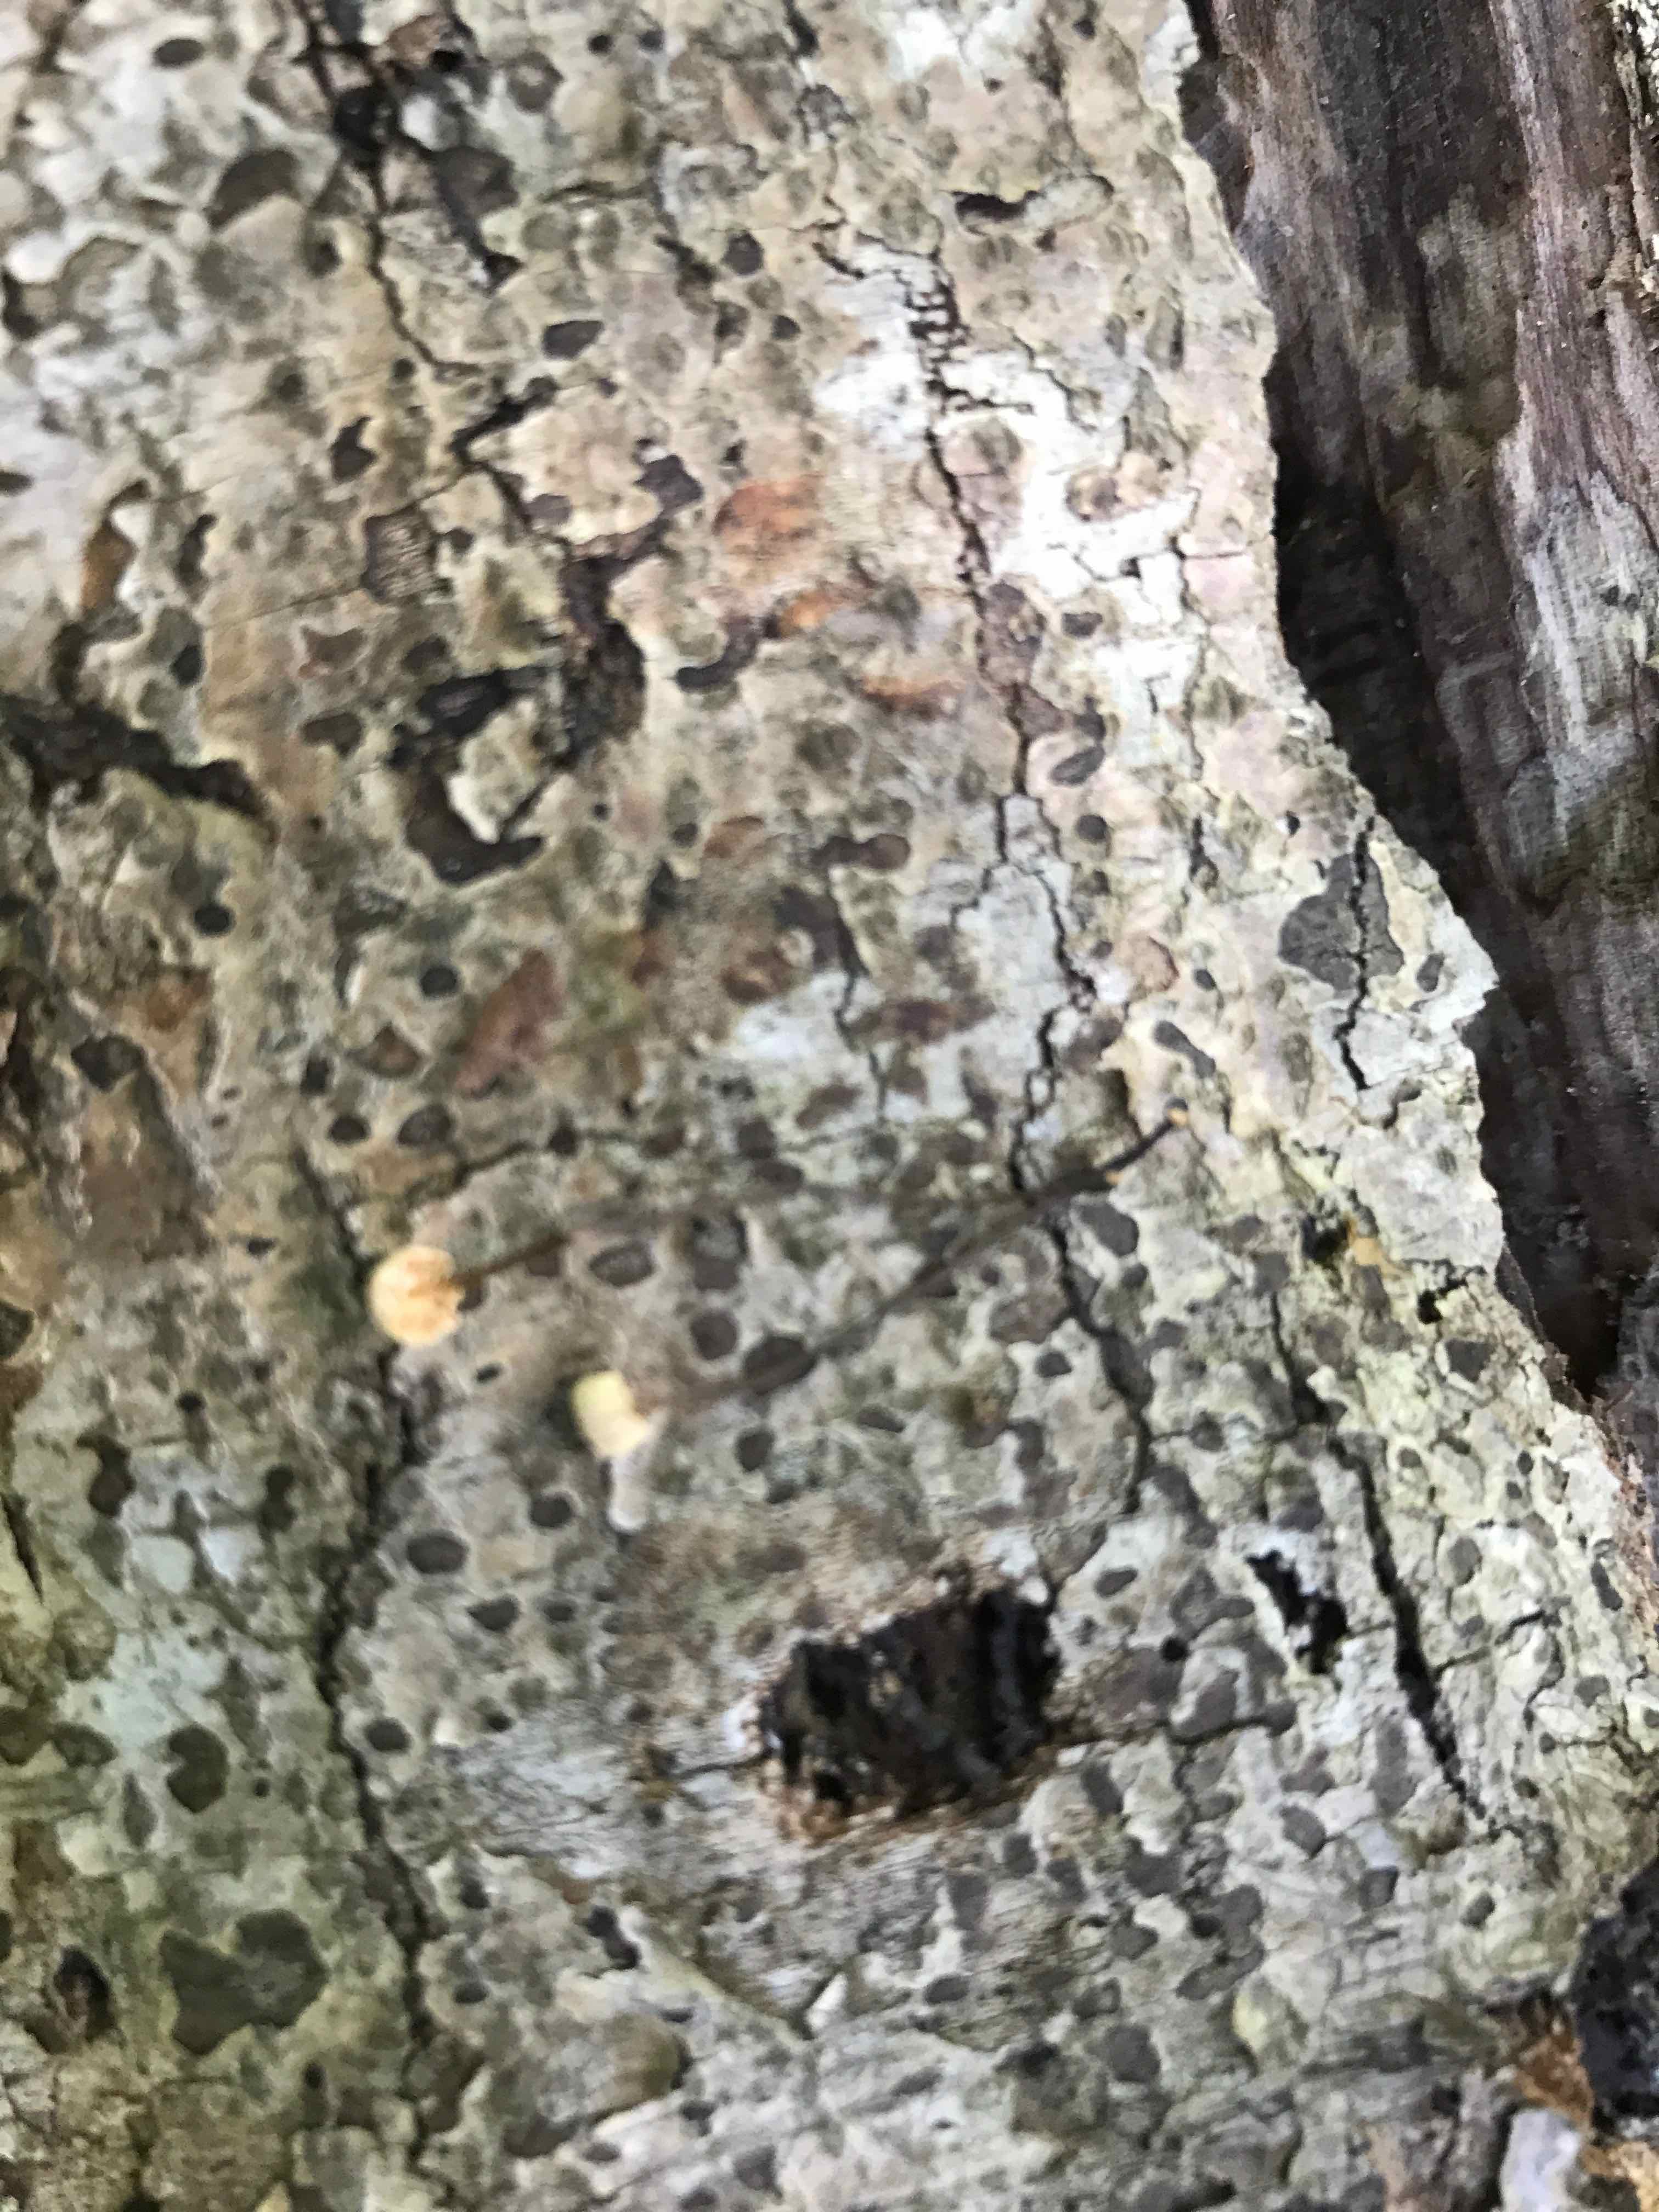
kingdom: Fungi
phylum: Basidiomycota
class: Agaricomycetes
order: Agaricales
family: Marasmiaceae
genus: Marasmius
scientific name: Marasmius rotula
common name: hjul-bruskhat
